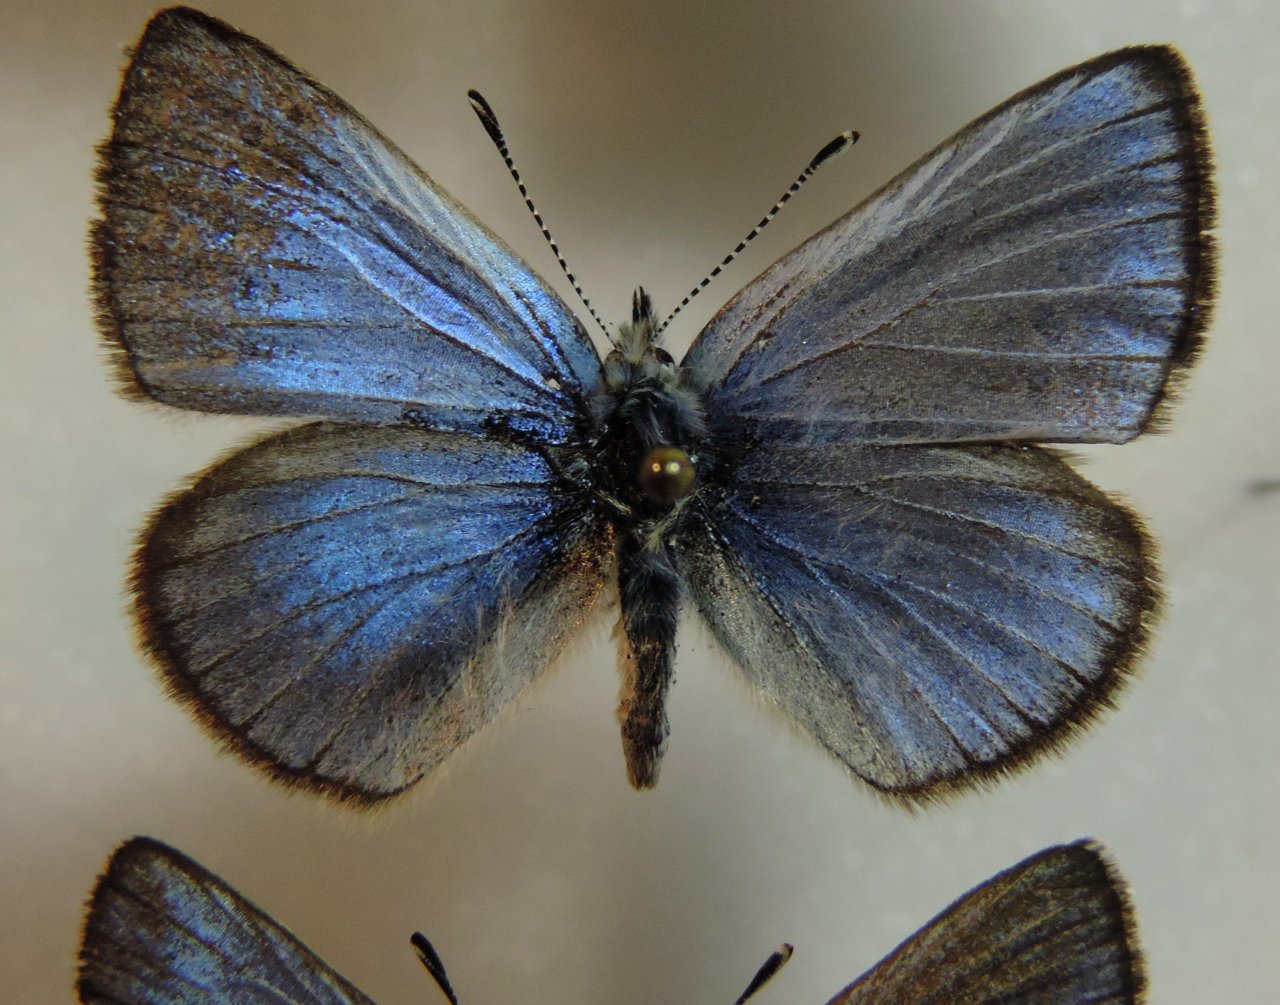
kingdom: Animalia
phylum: Arthropoda
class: Insecta
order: Lepidoptera
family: Lycaenidae
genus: Glaucopsyche
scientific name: Glaucopsyche lygdamus
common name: Silvery Blue
